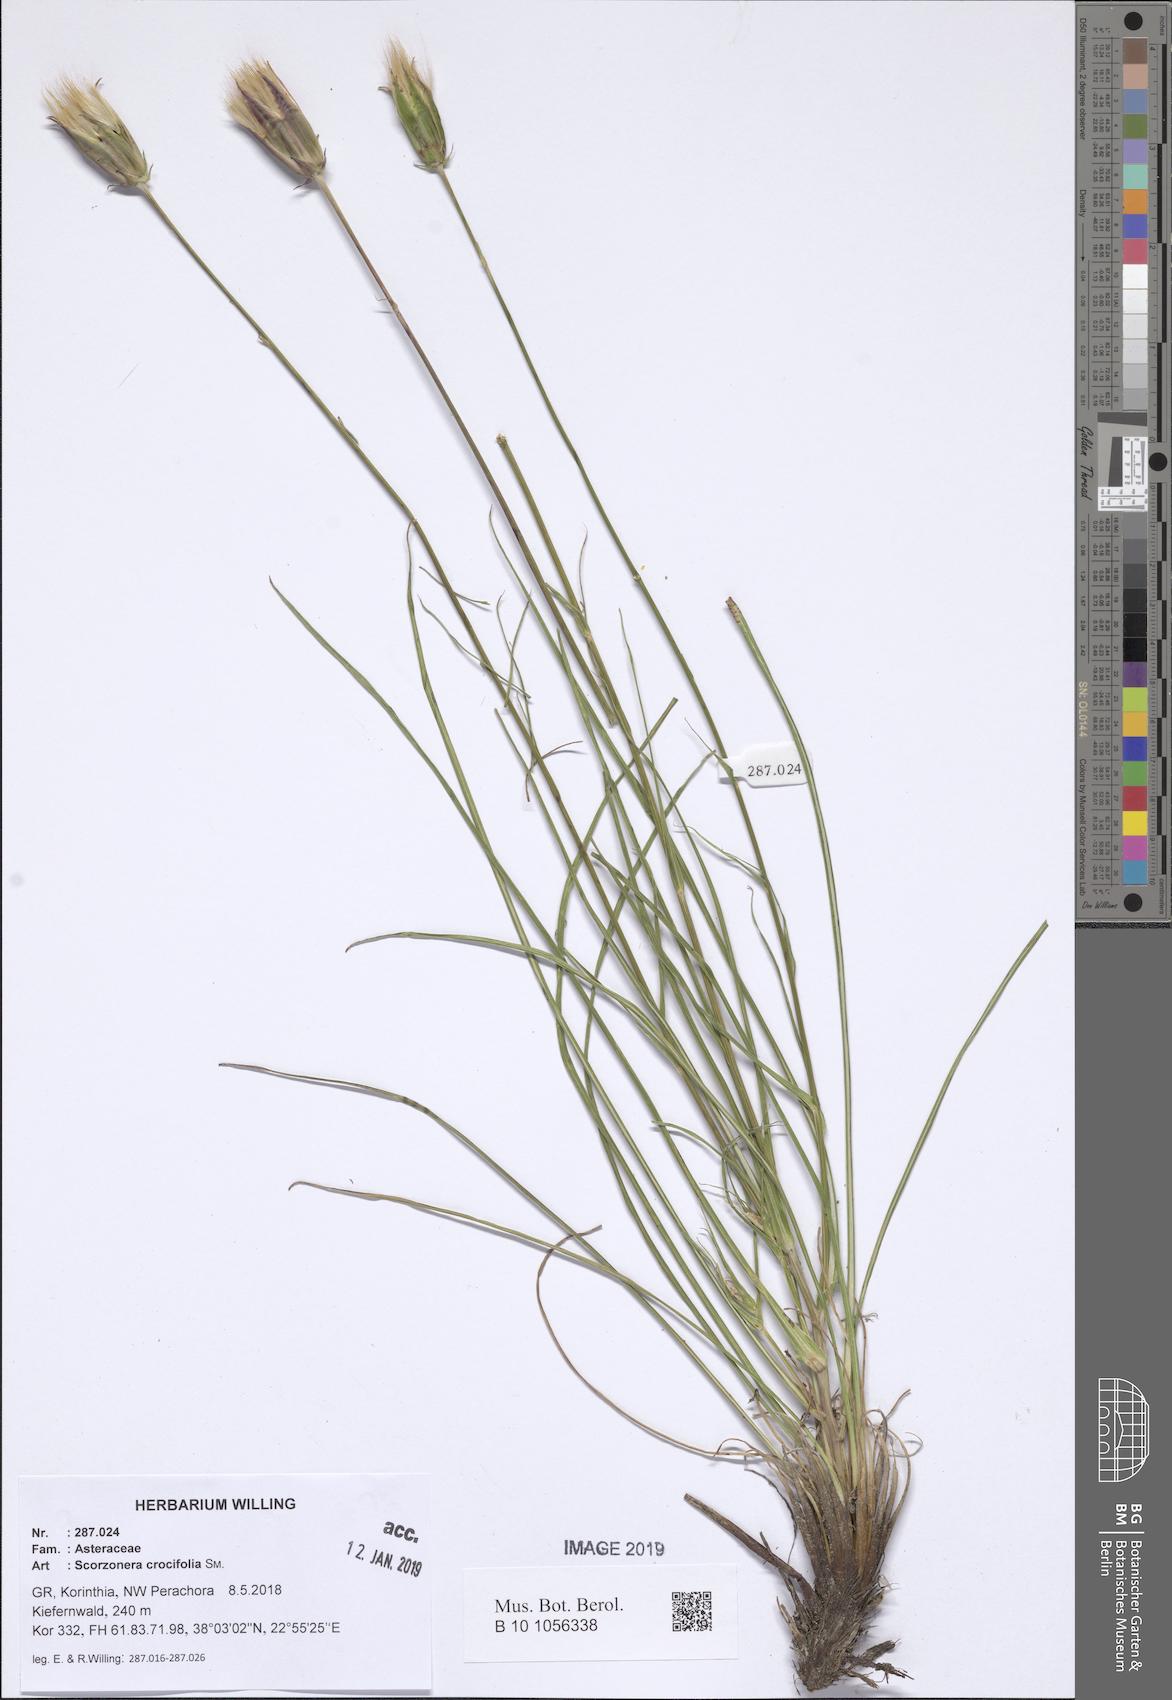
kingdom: Plantae
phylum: Tracheophyta
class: Magnoliopsida
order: Asterales
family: Asteraceae
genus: Pseudopodospermum
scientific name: Pseudopodospermum crocifolium
